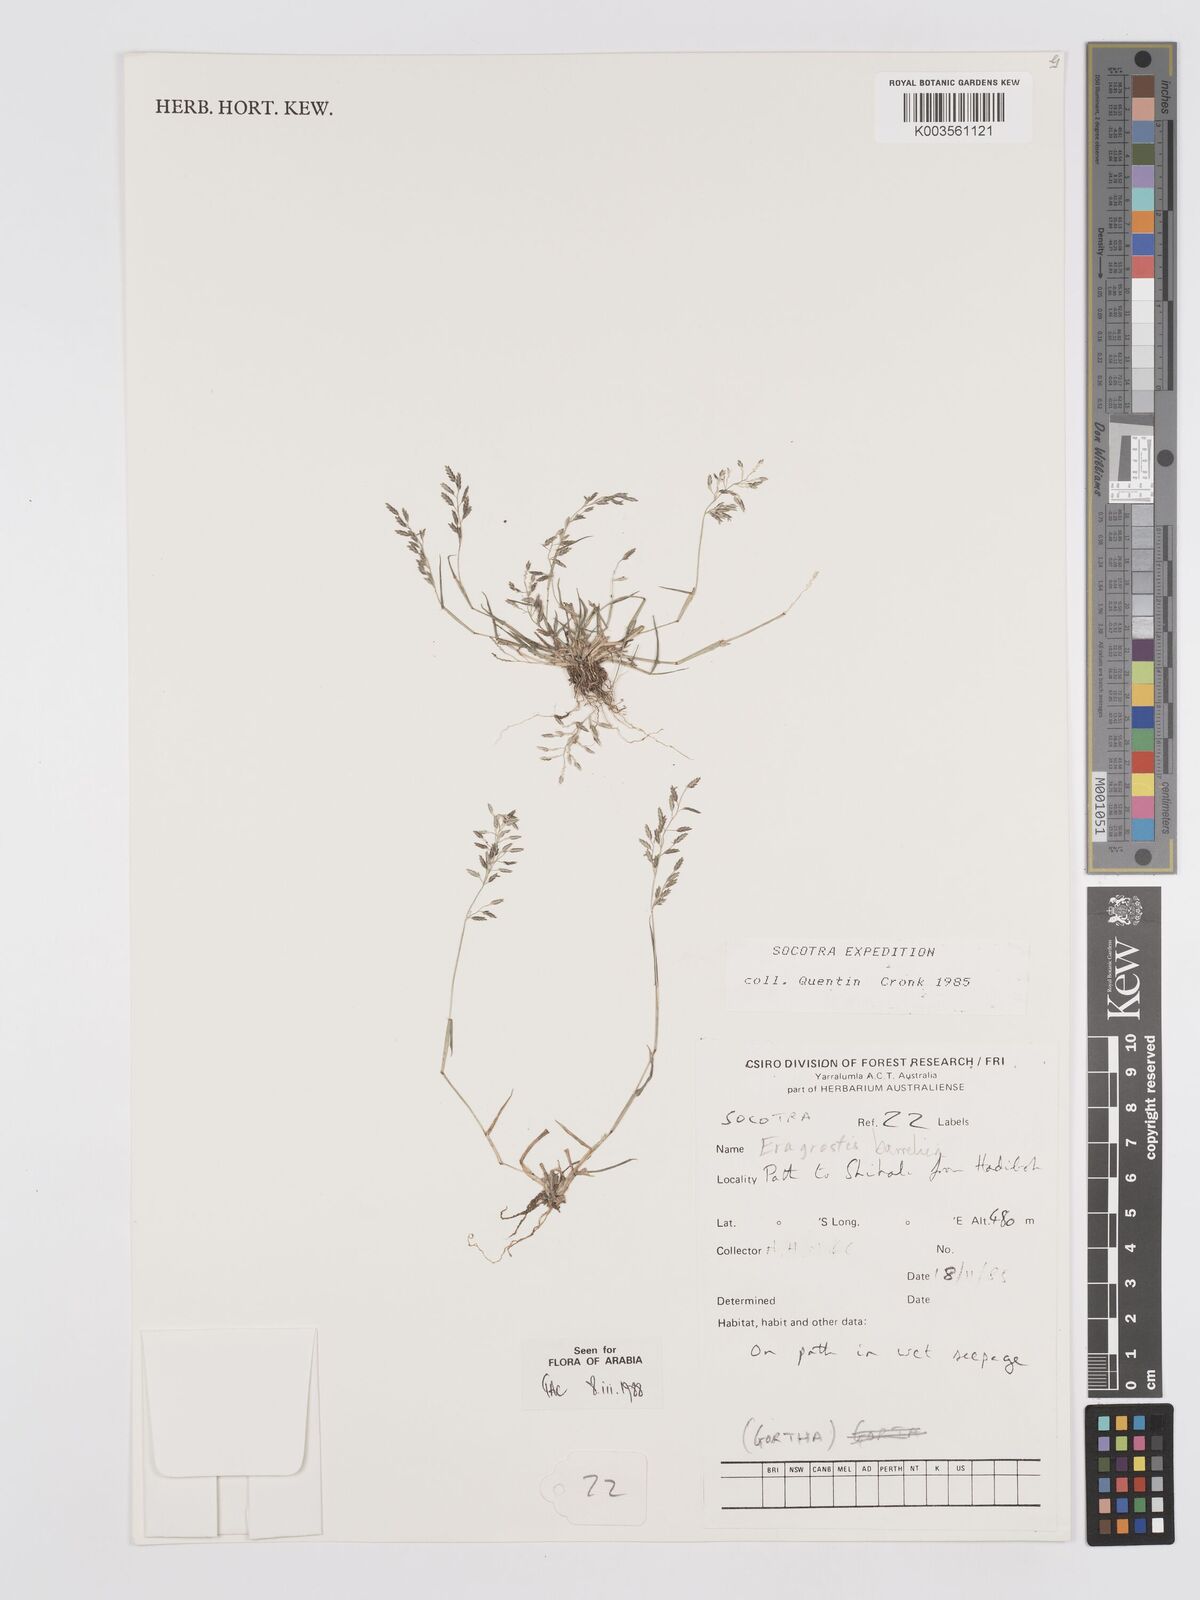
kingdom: Plantae
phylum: Tracheophyta
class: Liliopsida
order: Poales
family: Poaceae
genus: Eragrostis
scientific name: Eragrostis barrelieri
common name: Mediterranean lovegrass
